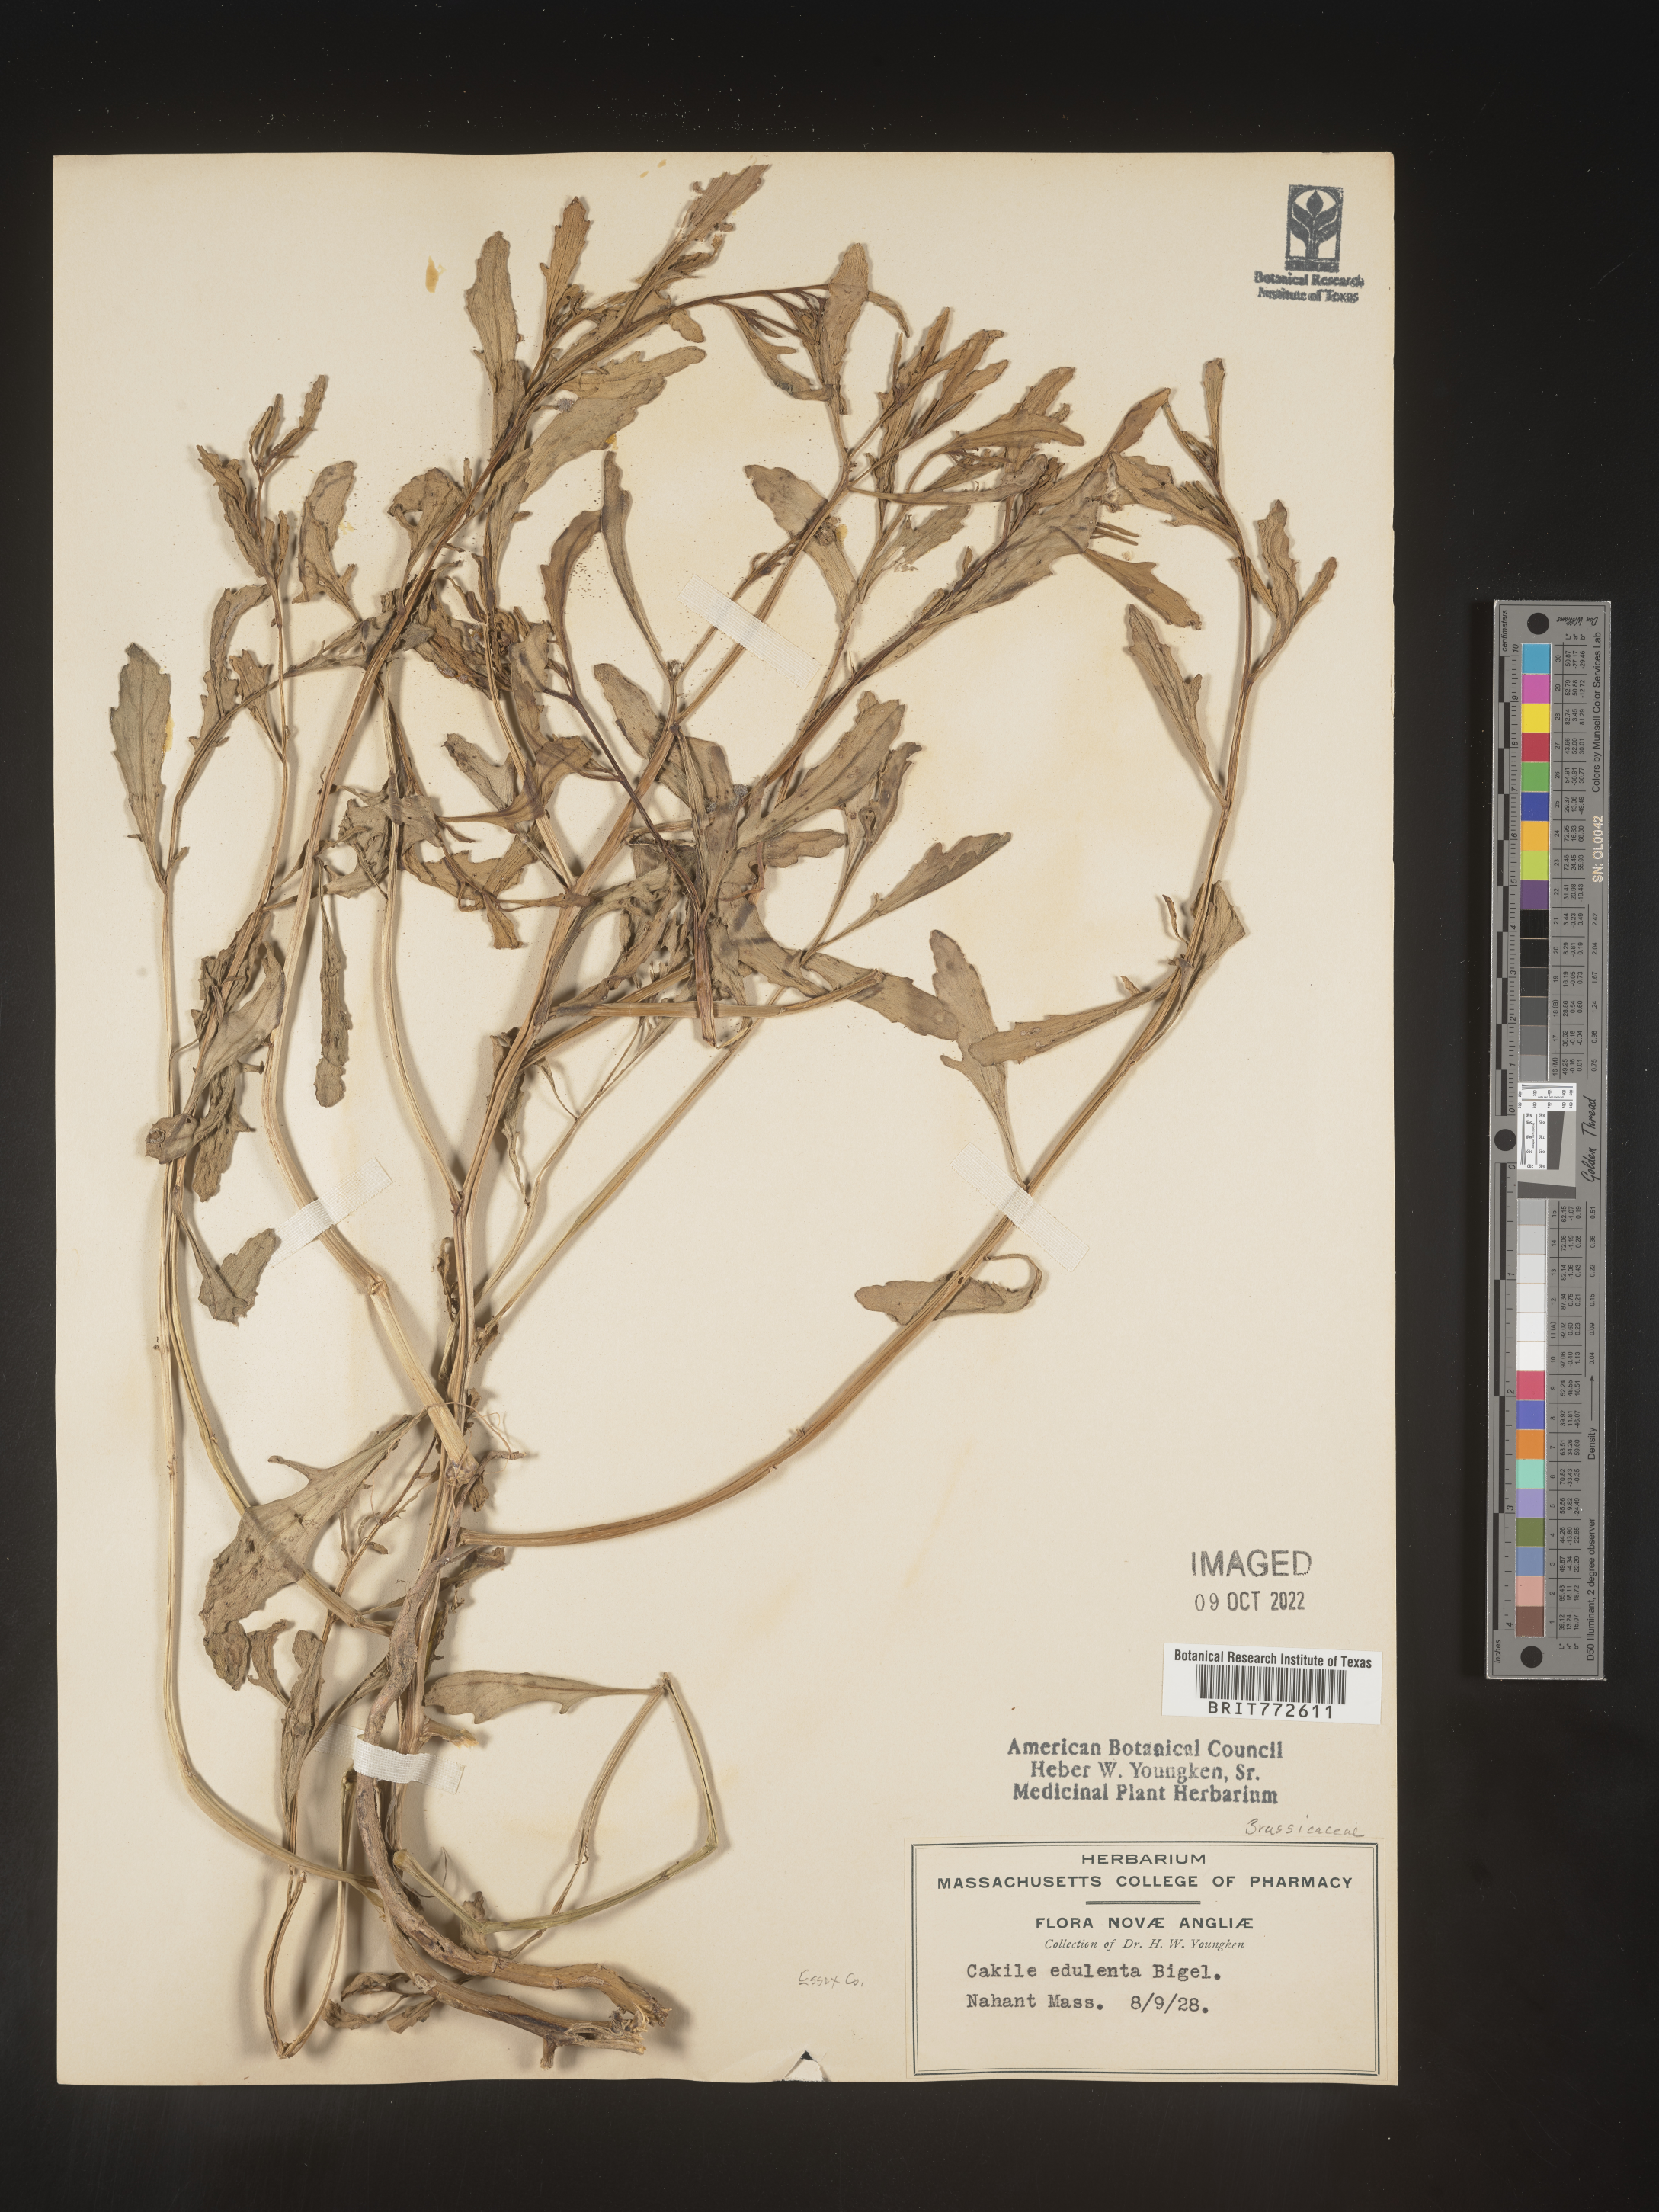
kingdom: Plantae
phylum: Tracheophyta
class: Magnoliopsida
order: Brassicales
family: Brassicaceae
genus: Cakile
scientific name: Cakile edentula
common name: American sea rocket
